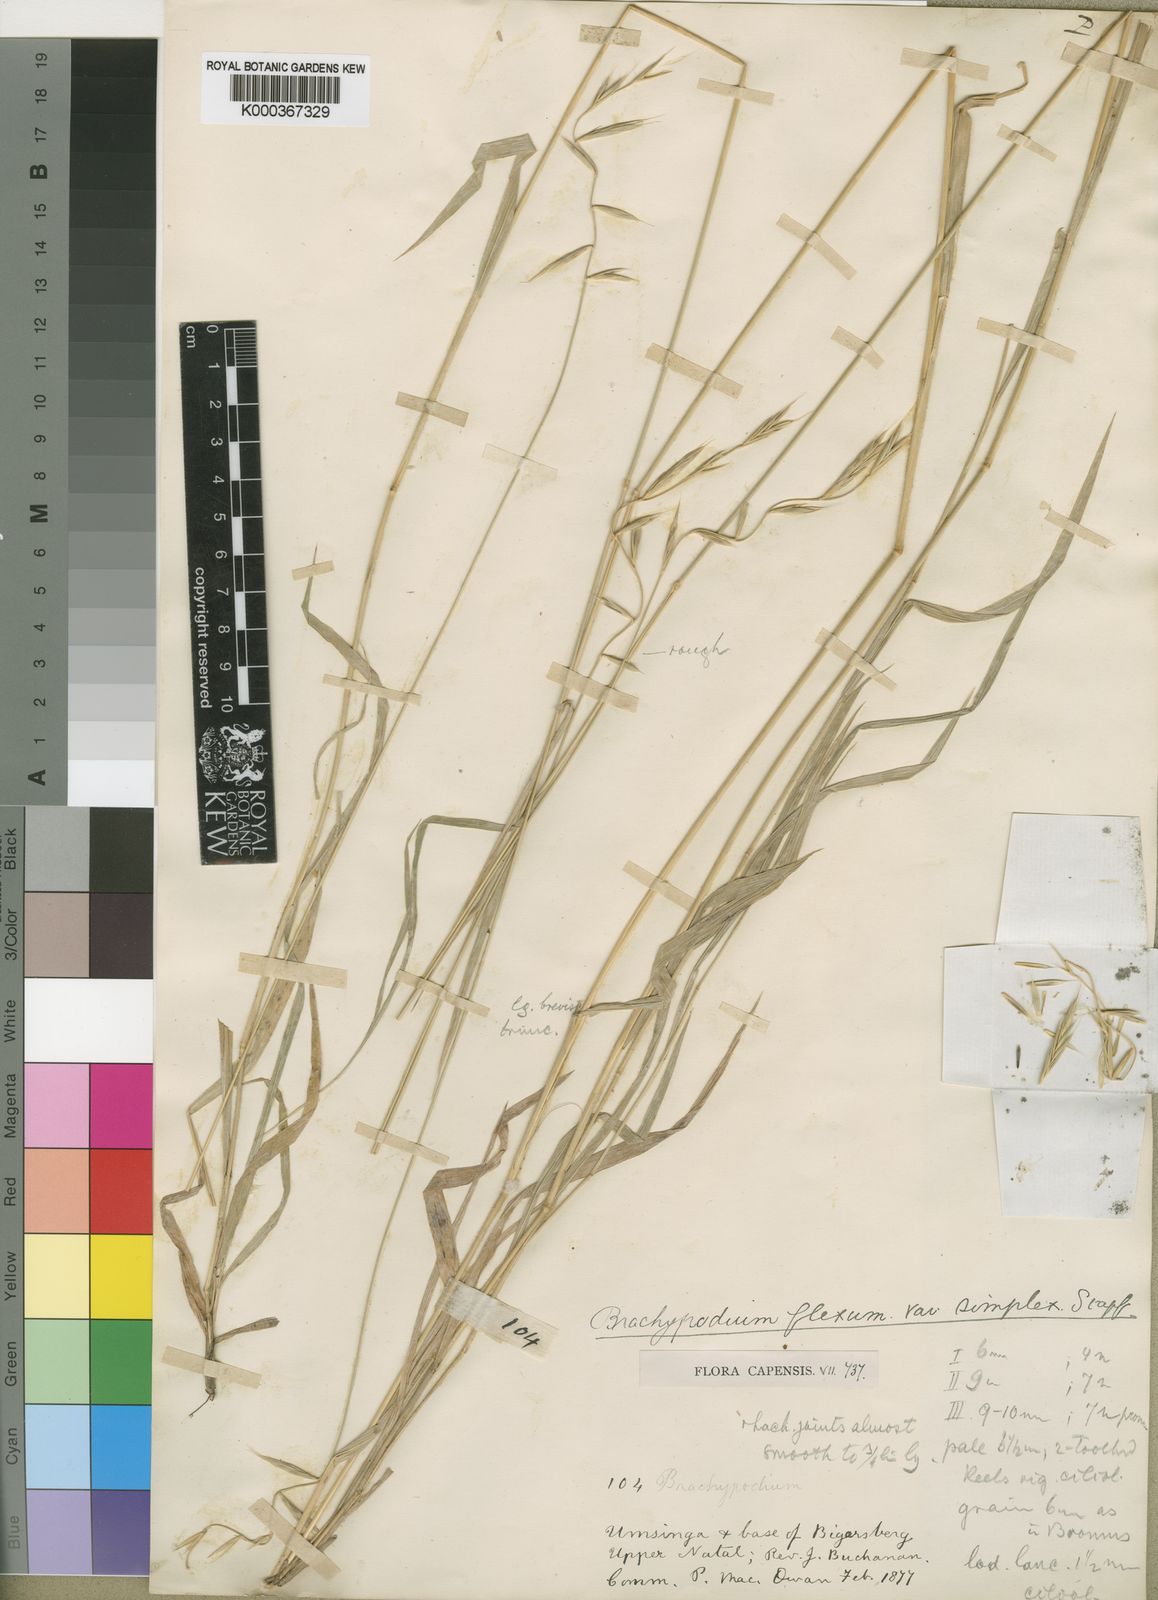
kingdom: Plantae
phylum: Tracheophyta
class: Liliopsida
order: Poales
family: Poaceae
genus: Brachypodium
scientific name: Brachypodium flexum
